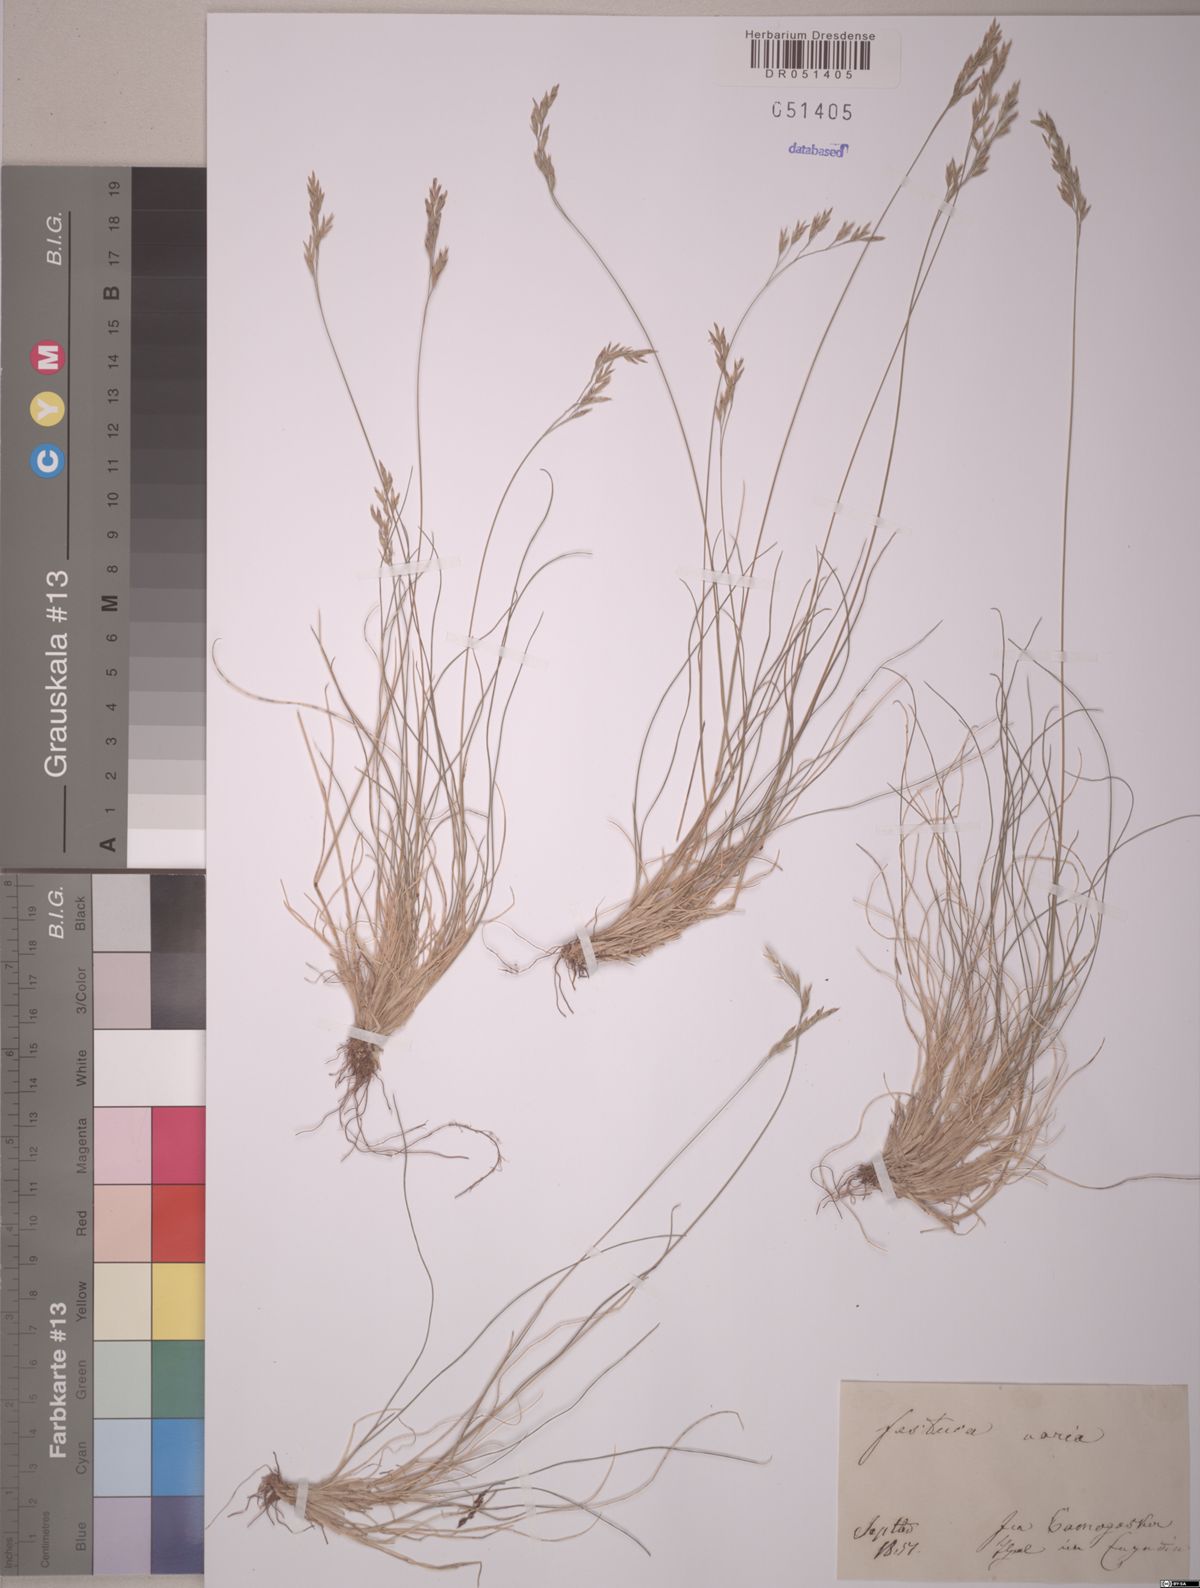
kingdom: Plantae
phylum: Tracheophyta
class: Liliopsida
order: Poales
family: Poaceae
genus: Festuca
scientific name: Festuca varia
